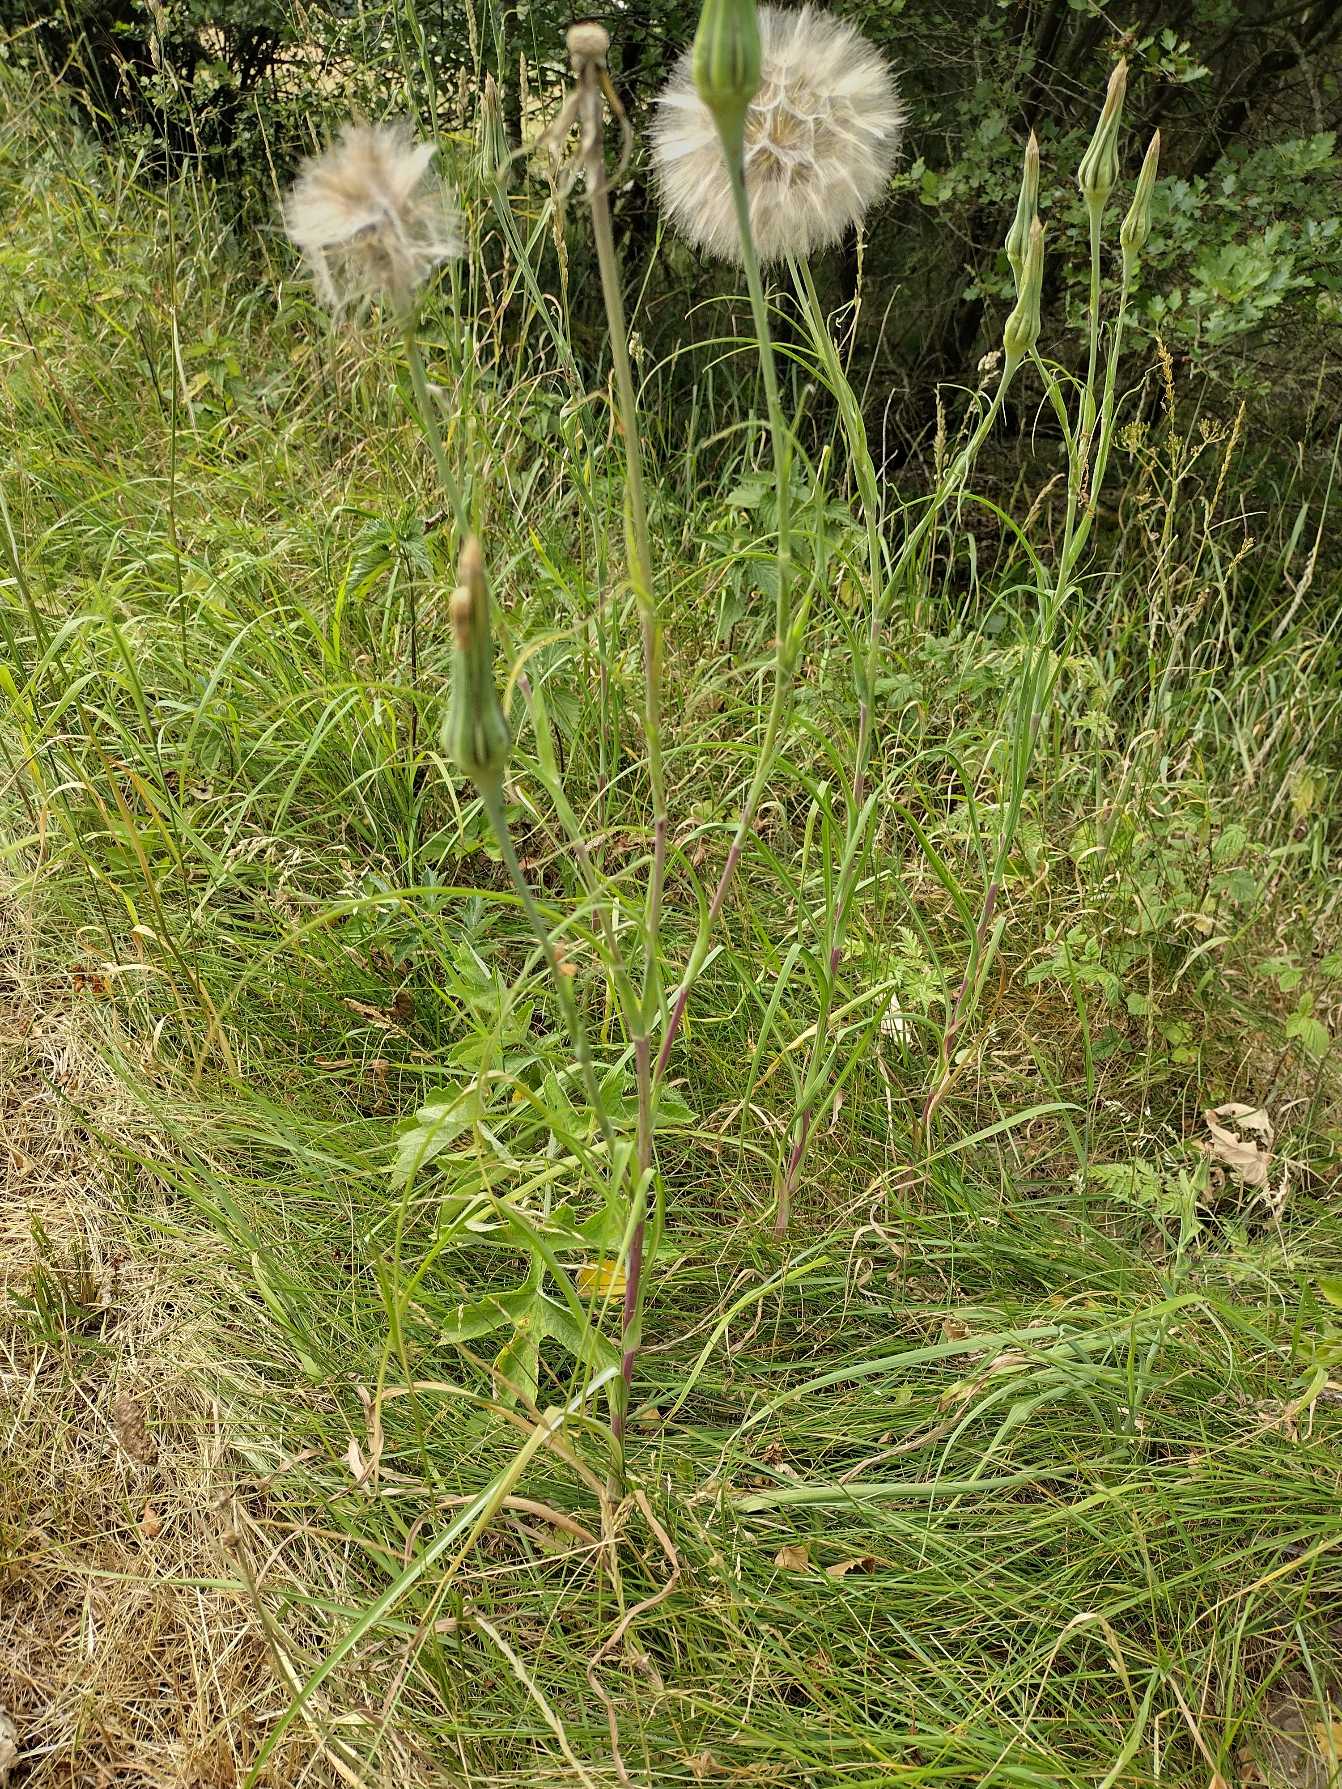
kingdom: Plantae
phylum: Tracheophyta
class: Magnoliopsida
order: Asterales
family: Asteraceae
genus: Tragopogon
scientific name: Tragopogon pratensis
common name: Gedeskæg
